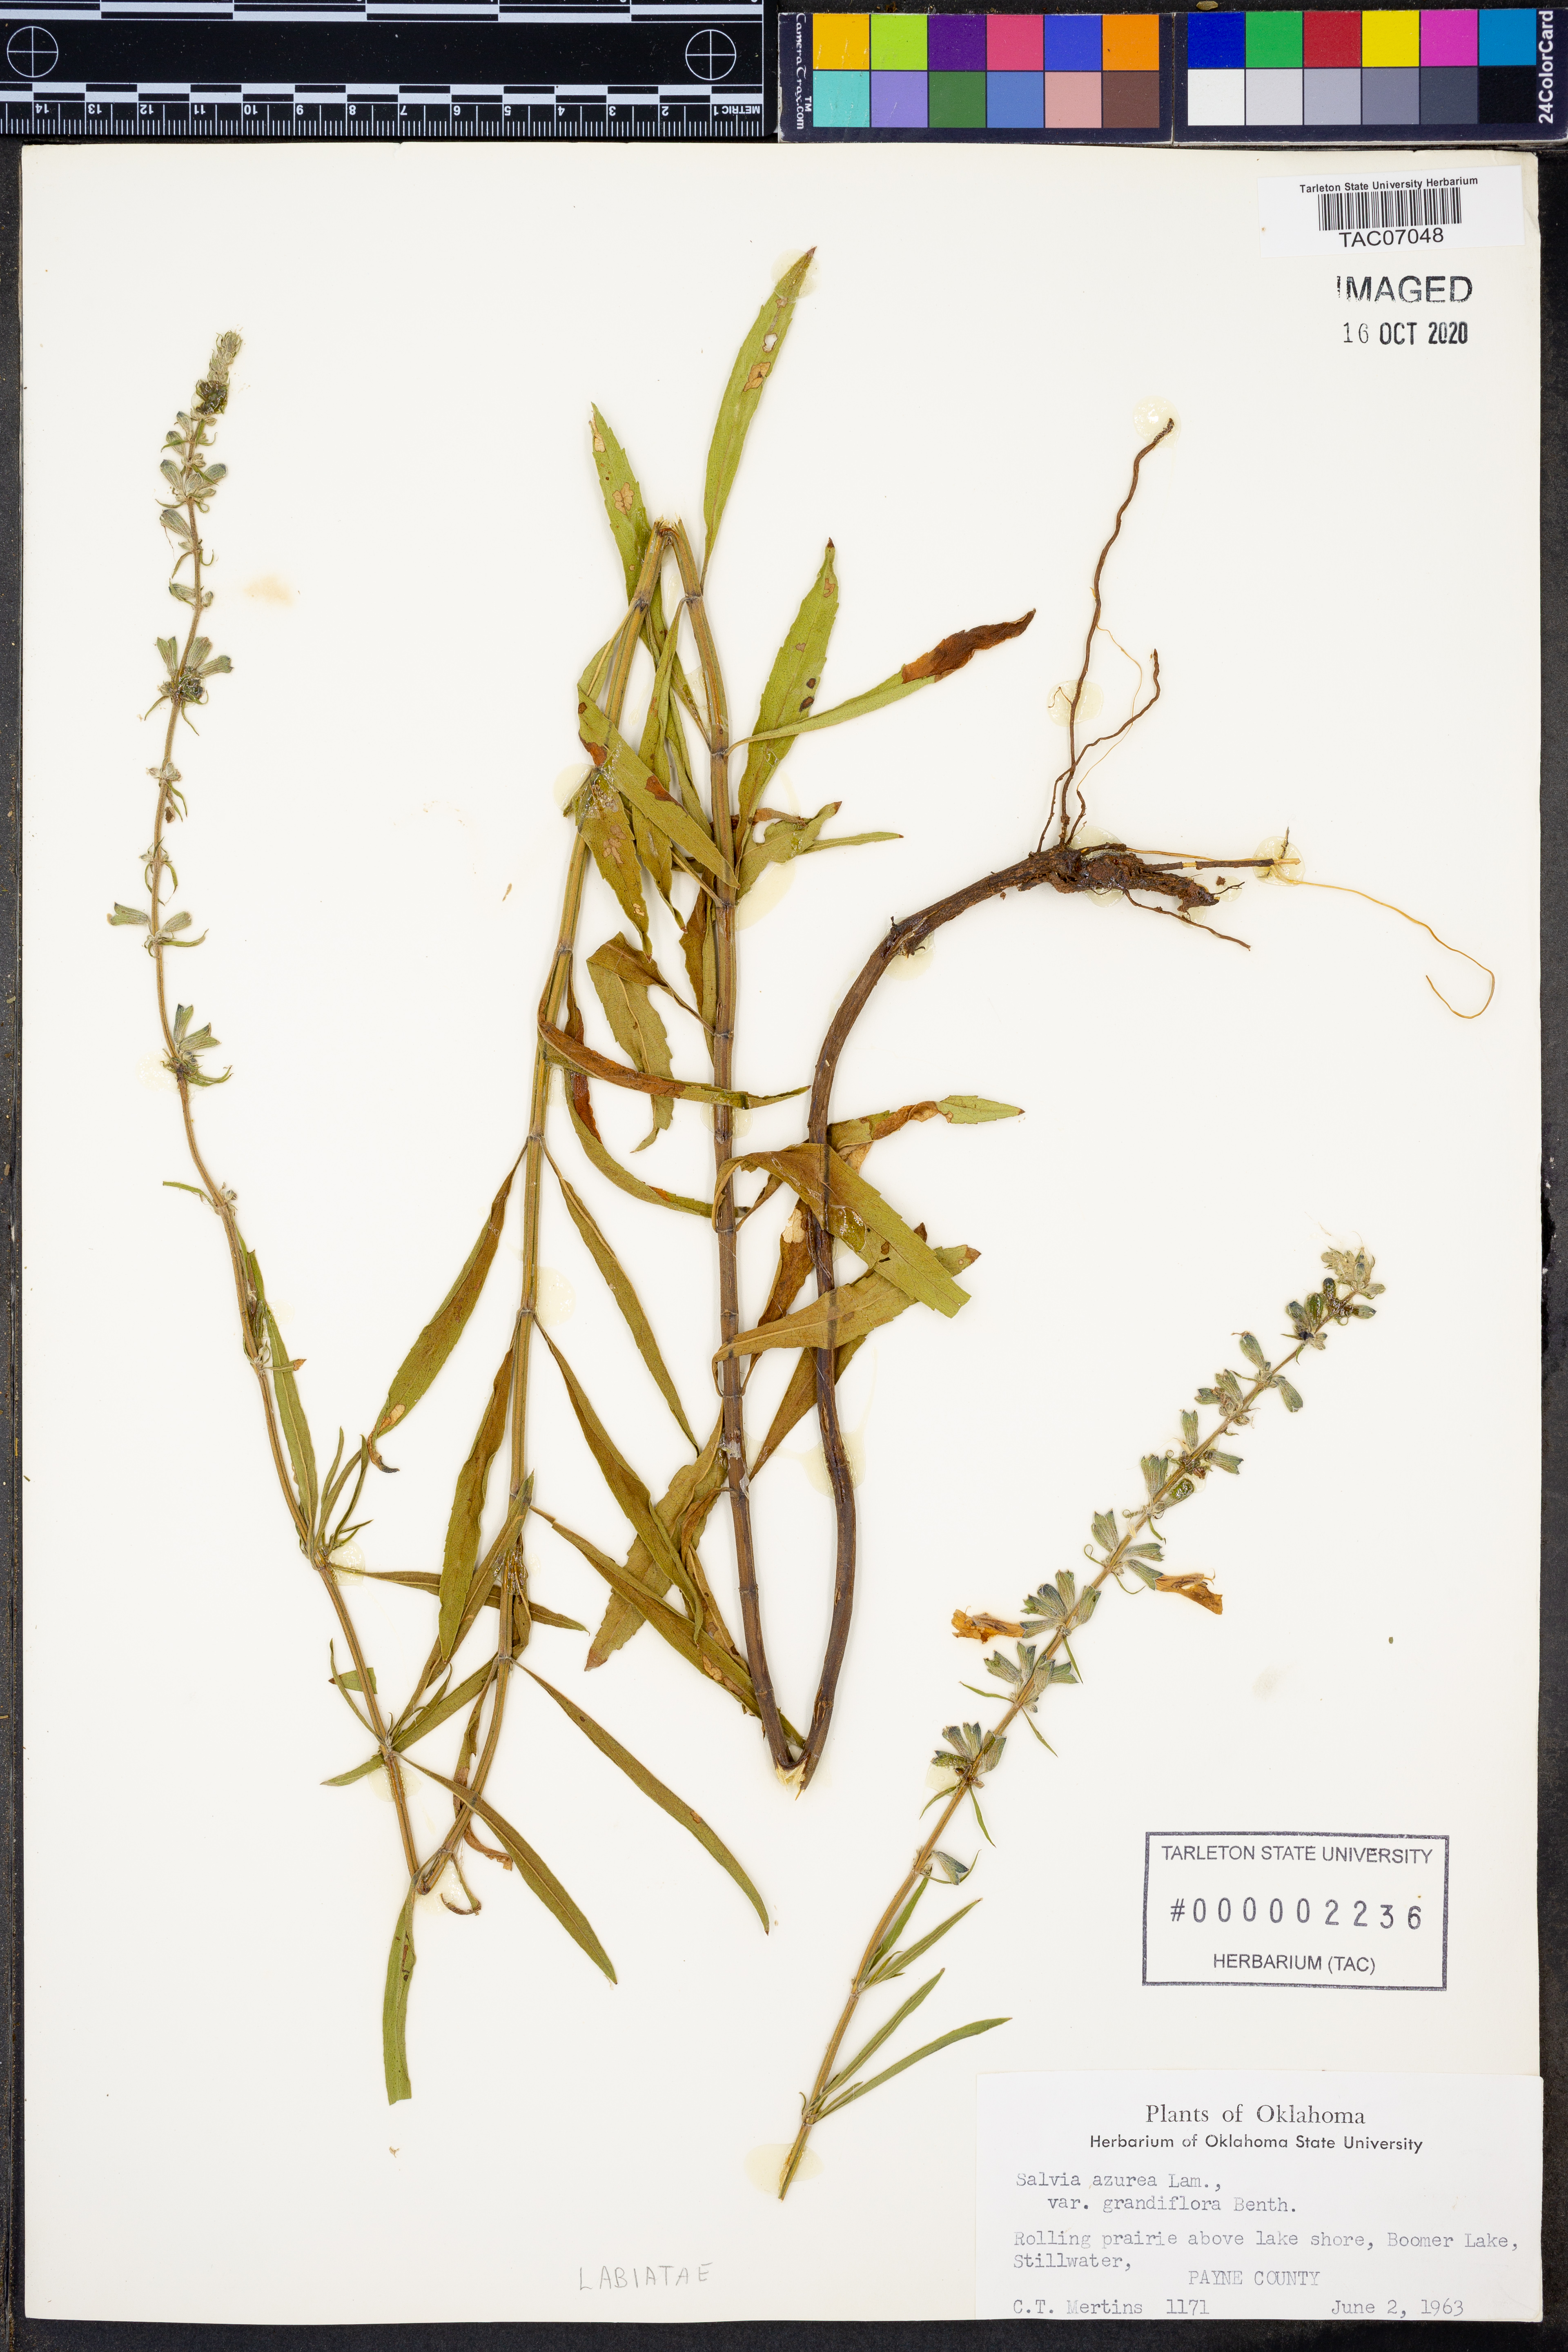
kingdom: Plantae
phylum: Tracheophyta
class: Magnoliopsida
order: Lamiales
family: Lamiaceae
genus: Salvia
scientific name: Salvia azurea
